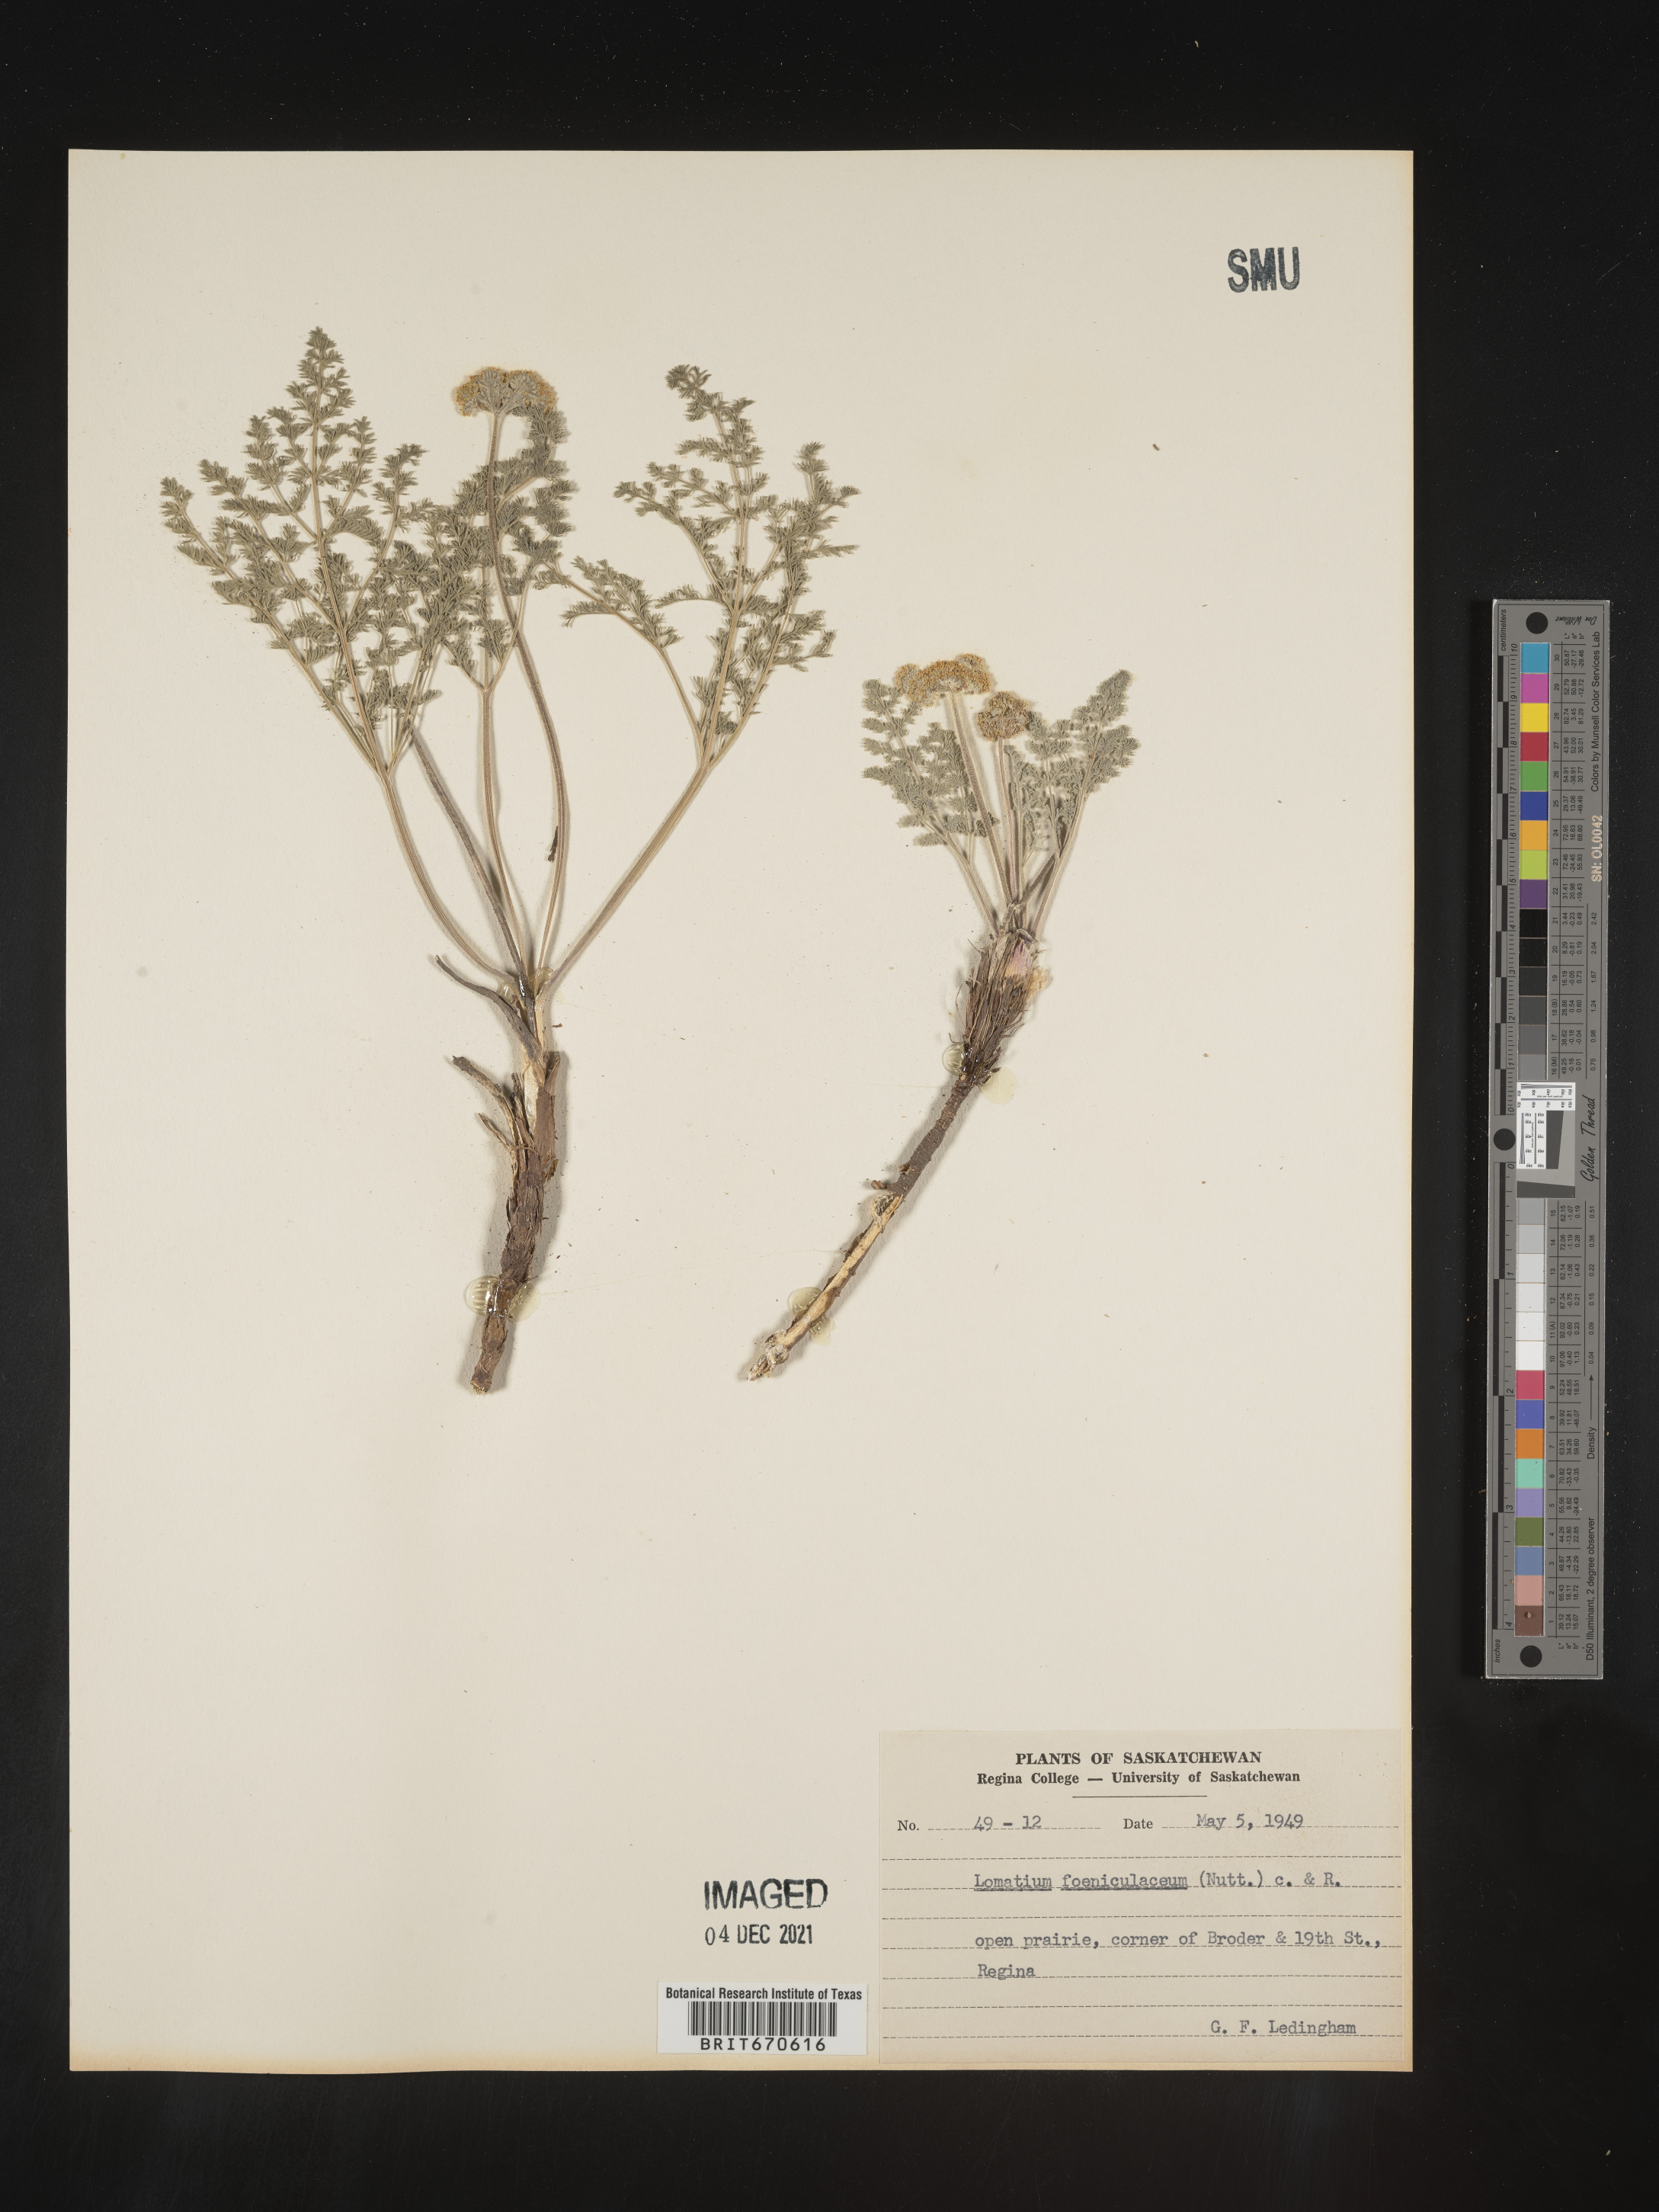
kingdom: Plantae
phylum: Tracheophyta
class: Magnoliopsida
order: Apiales
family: Apiaceae
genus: Lomatium
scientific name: Lomatium foeniculaceum
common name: Desert-parsley
